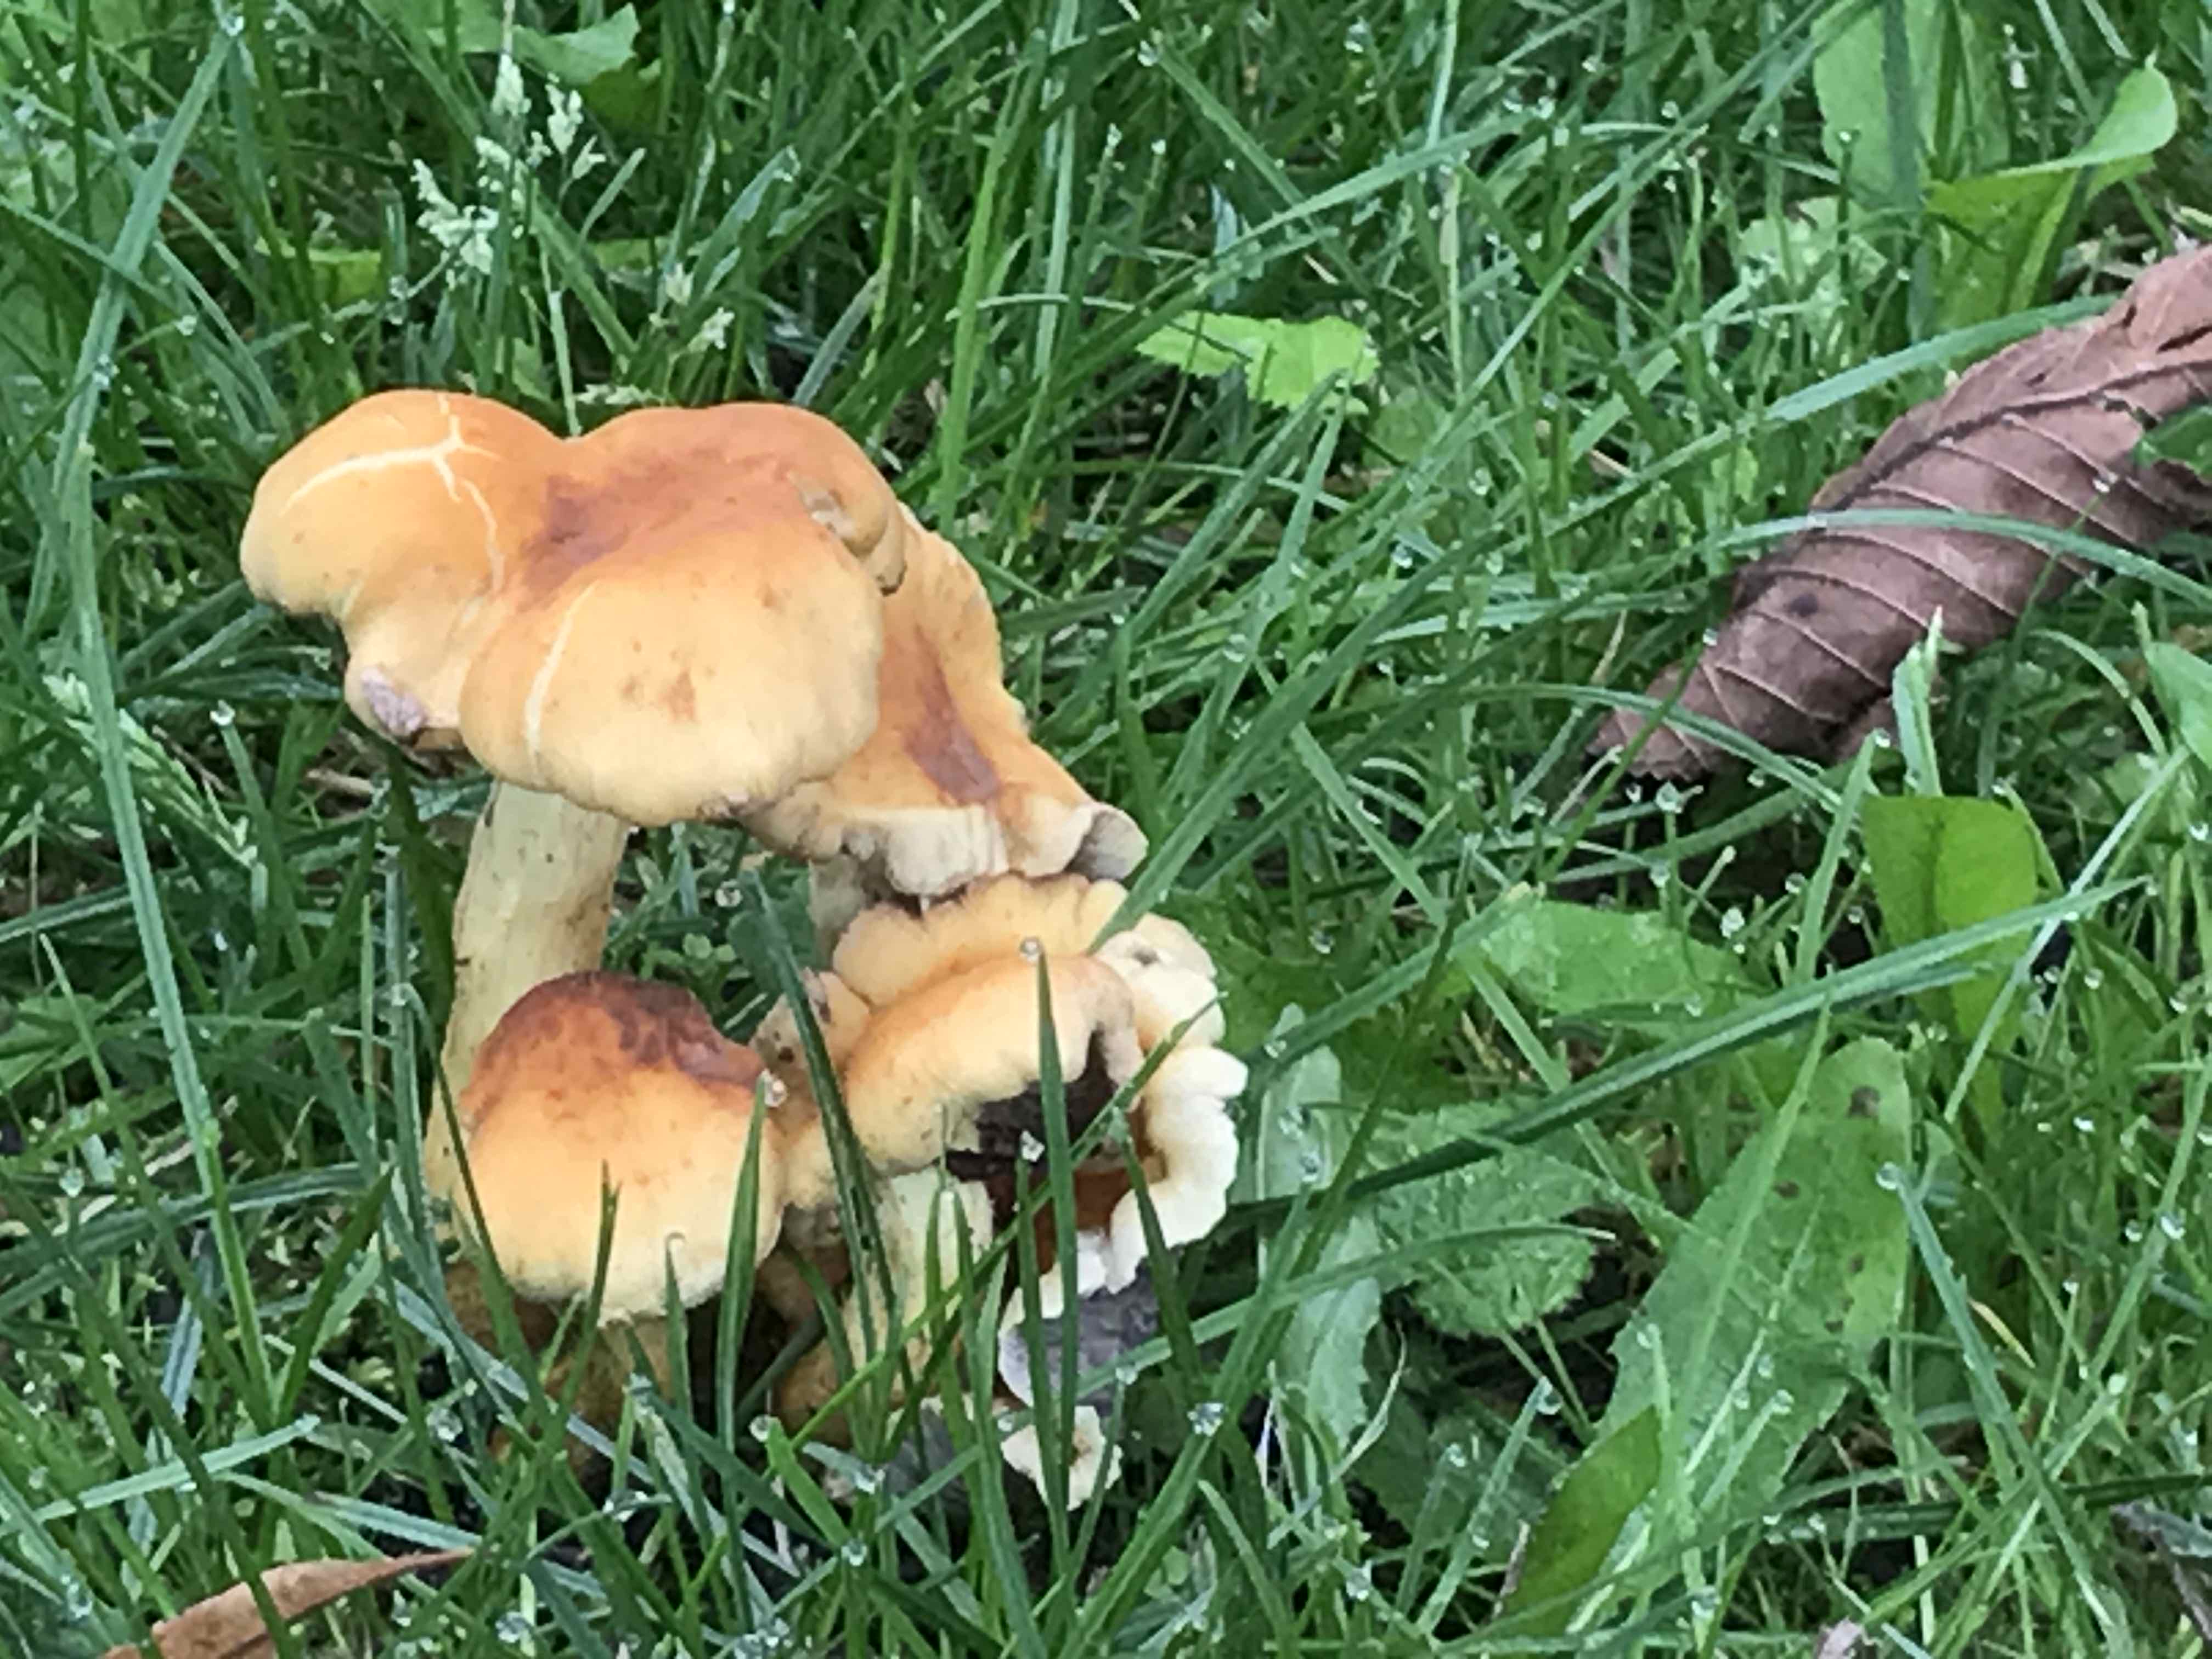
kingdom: Fungi
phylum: Basidiomycota
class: Agaricomycetes
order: Agaricales
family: Strophariaceae
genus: Hypholoma
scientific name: Hypholoma fasciculare
